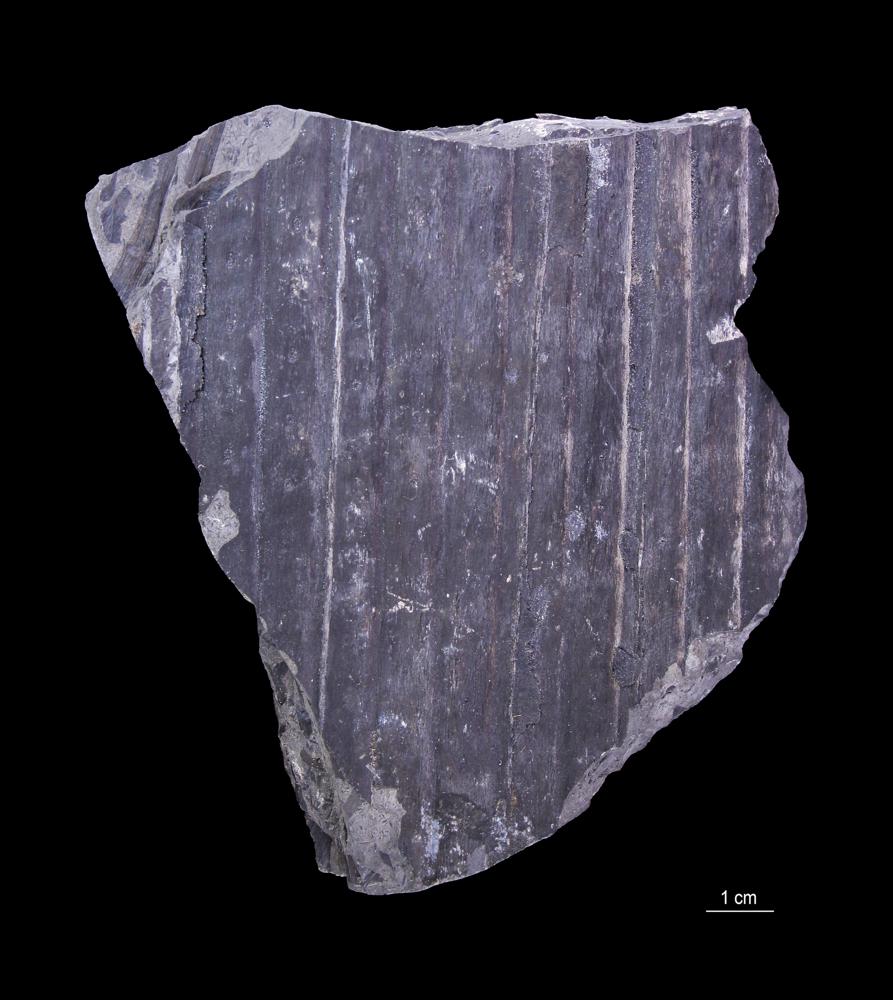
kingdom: Plantae
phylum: Tracheophyta
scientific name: Tracheophyta
